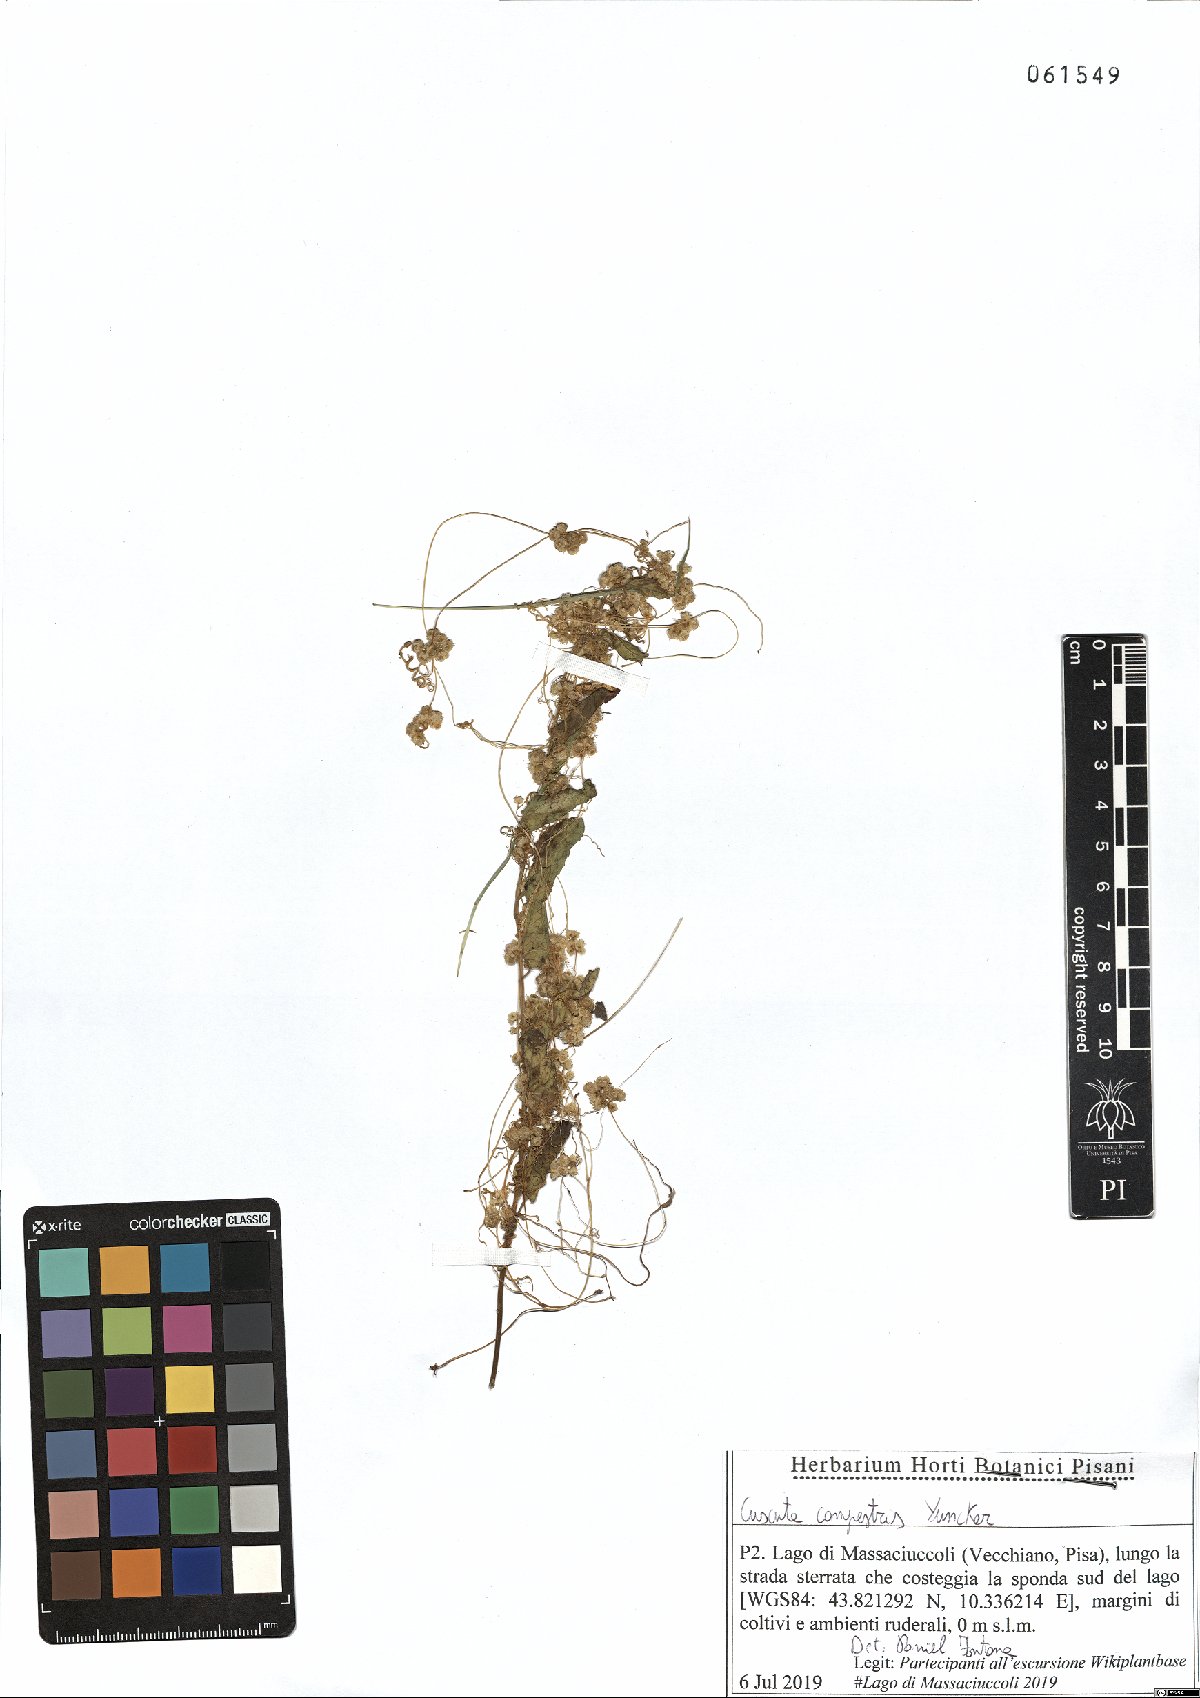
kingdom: Plantae
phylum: Tracheophyta
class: Magnoliopsida
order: Solanales
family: Convolvulaceae
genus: Cuscuta
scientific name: Cuscuta campestris
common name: Yellow dodder
